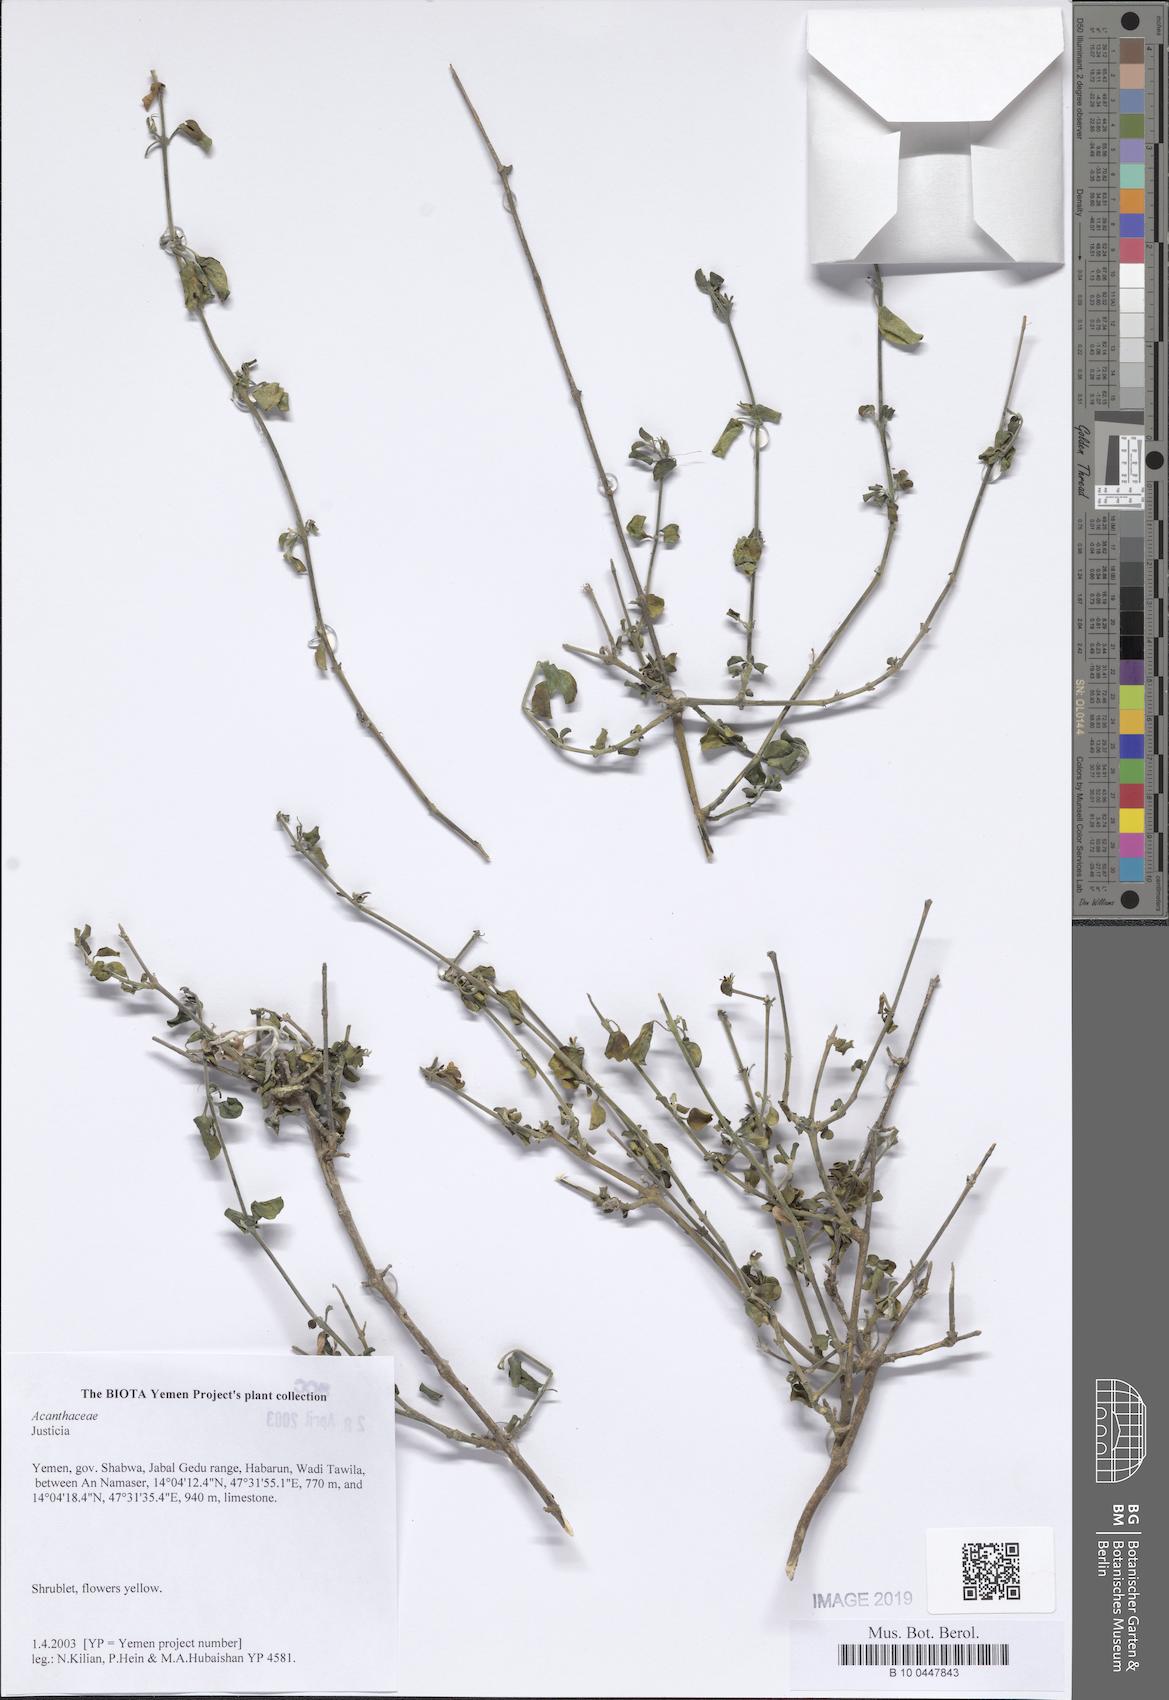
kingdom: Plantae
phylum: Tracheophyta
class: Magnoliopsida
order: Lamiales
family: Acanthaceae
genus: Justicia
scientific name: Justicia
